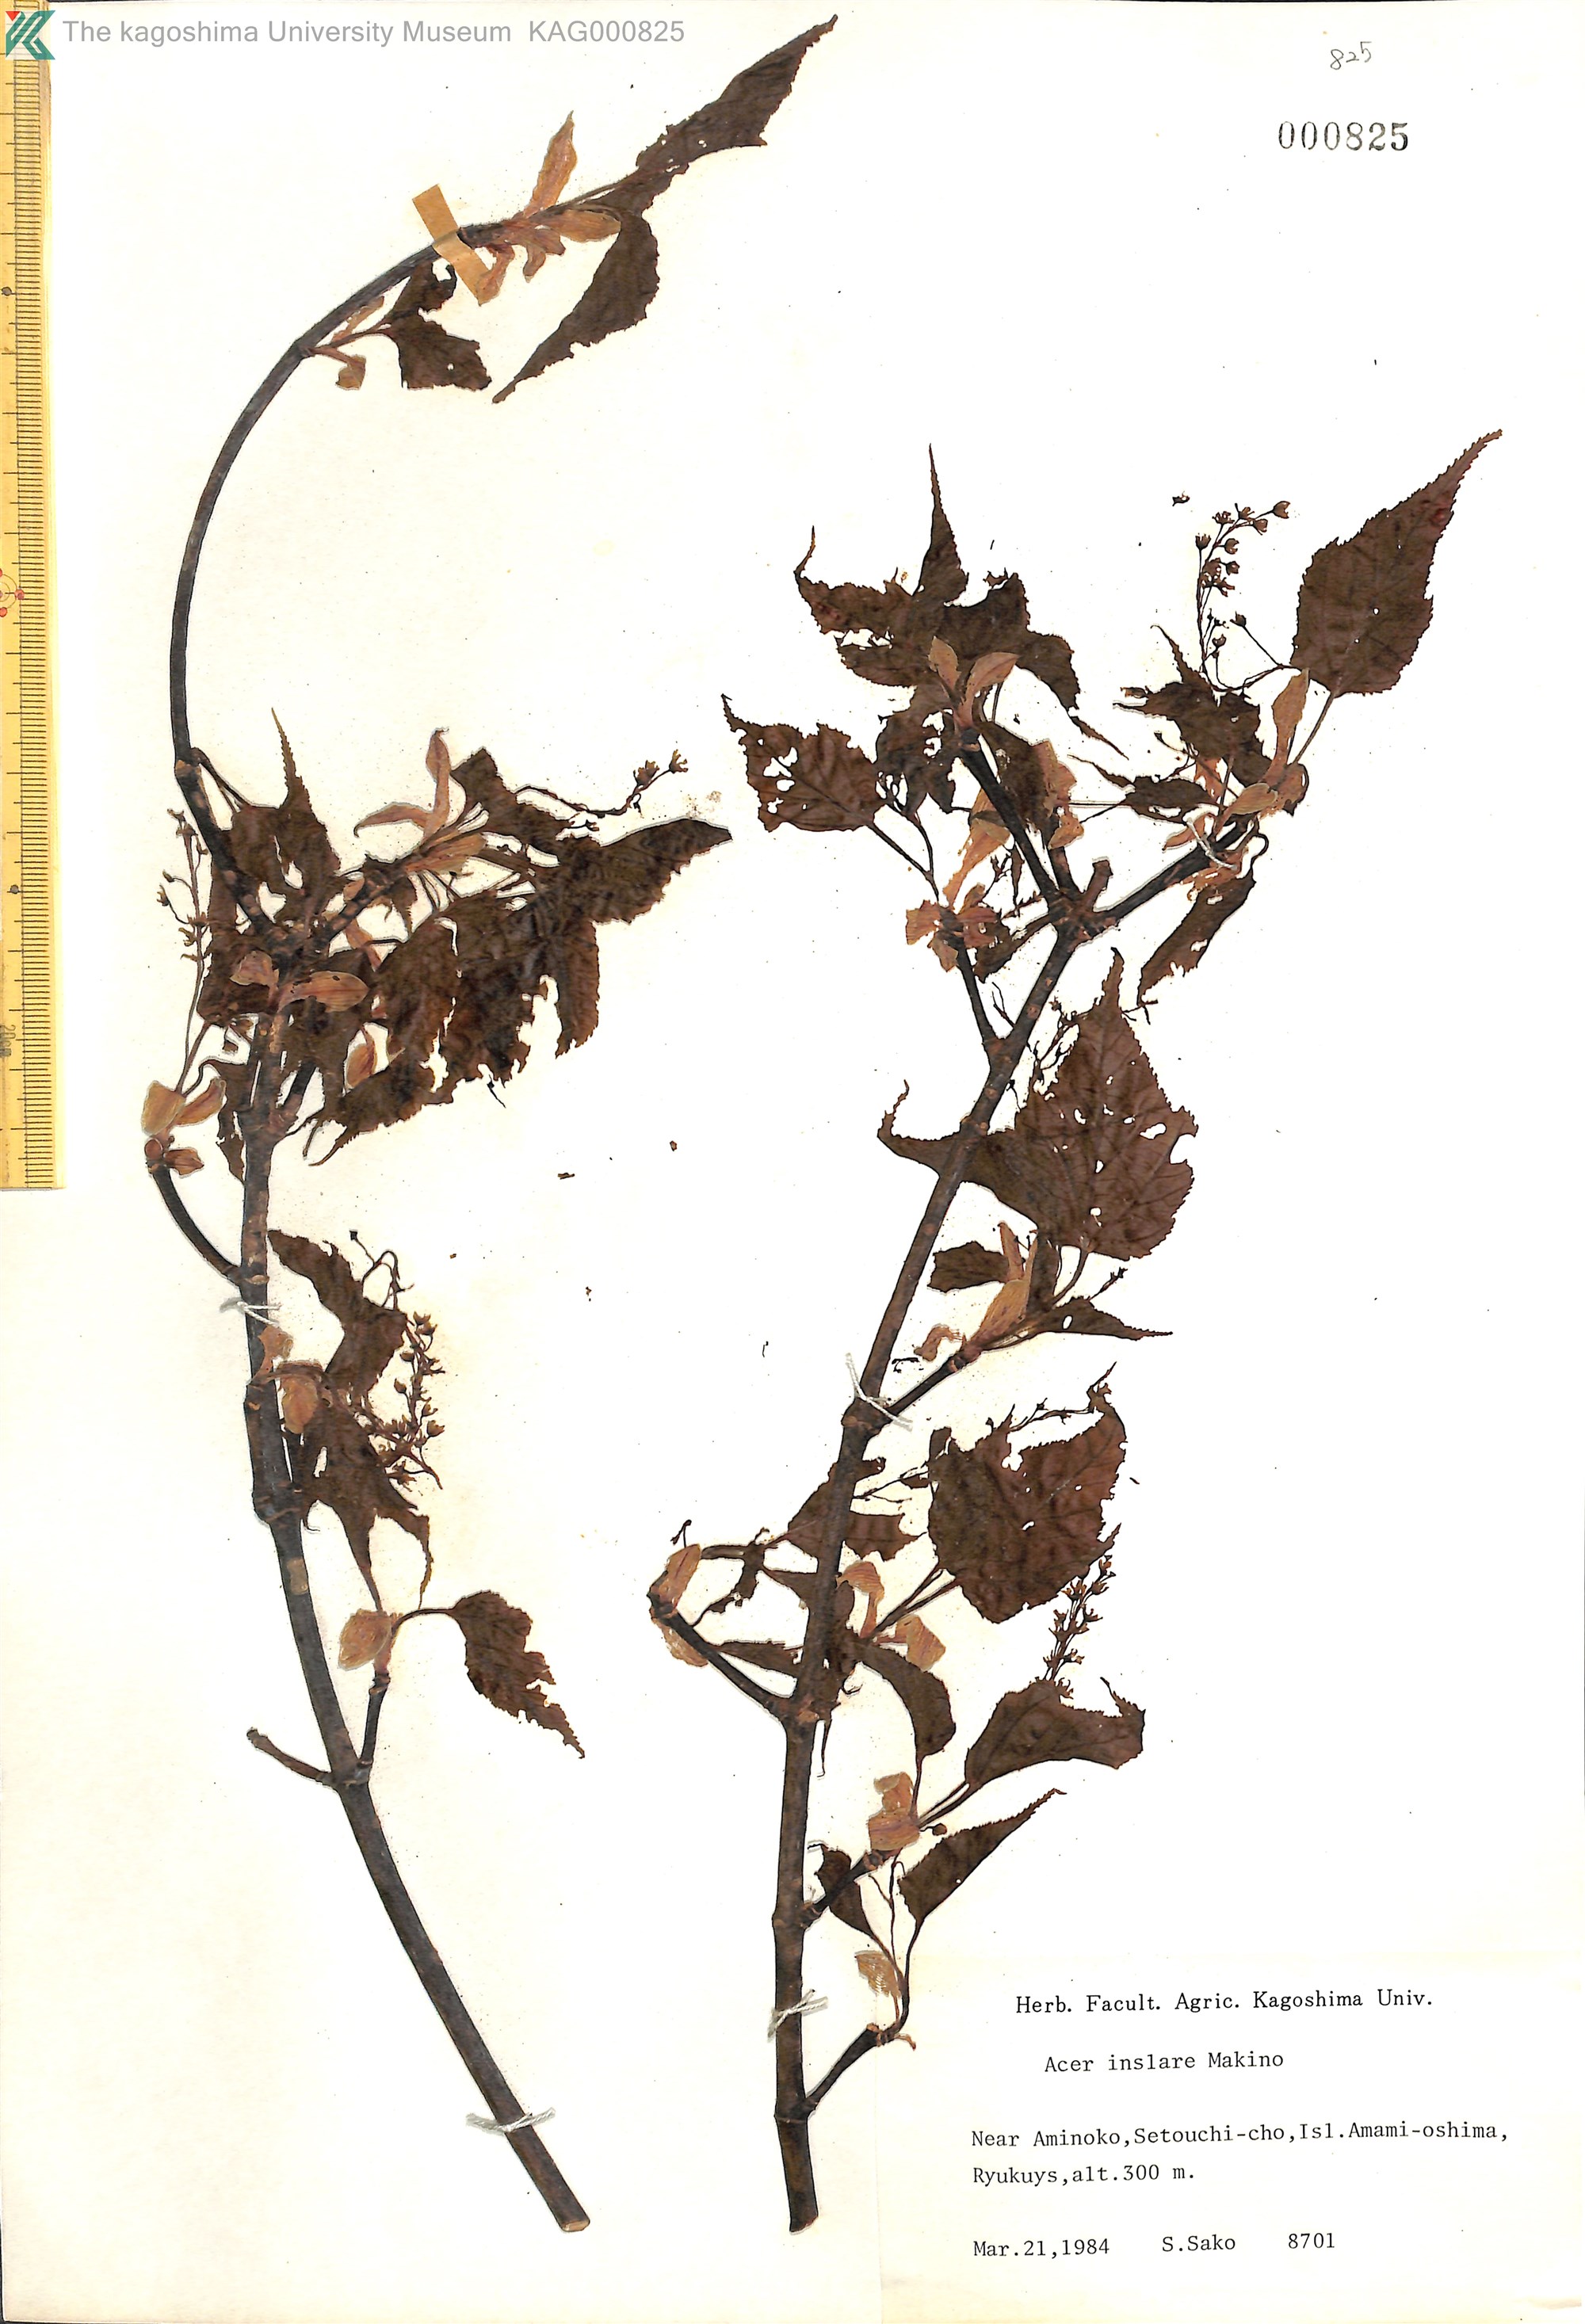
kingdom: Plantae
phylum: Tracheophyta
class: Magnoliopsida
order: Sapindales
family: Sapindaceae
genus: Acer
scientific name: Acer caudatifolium
